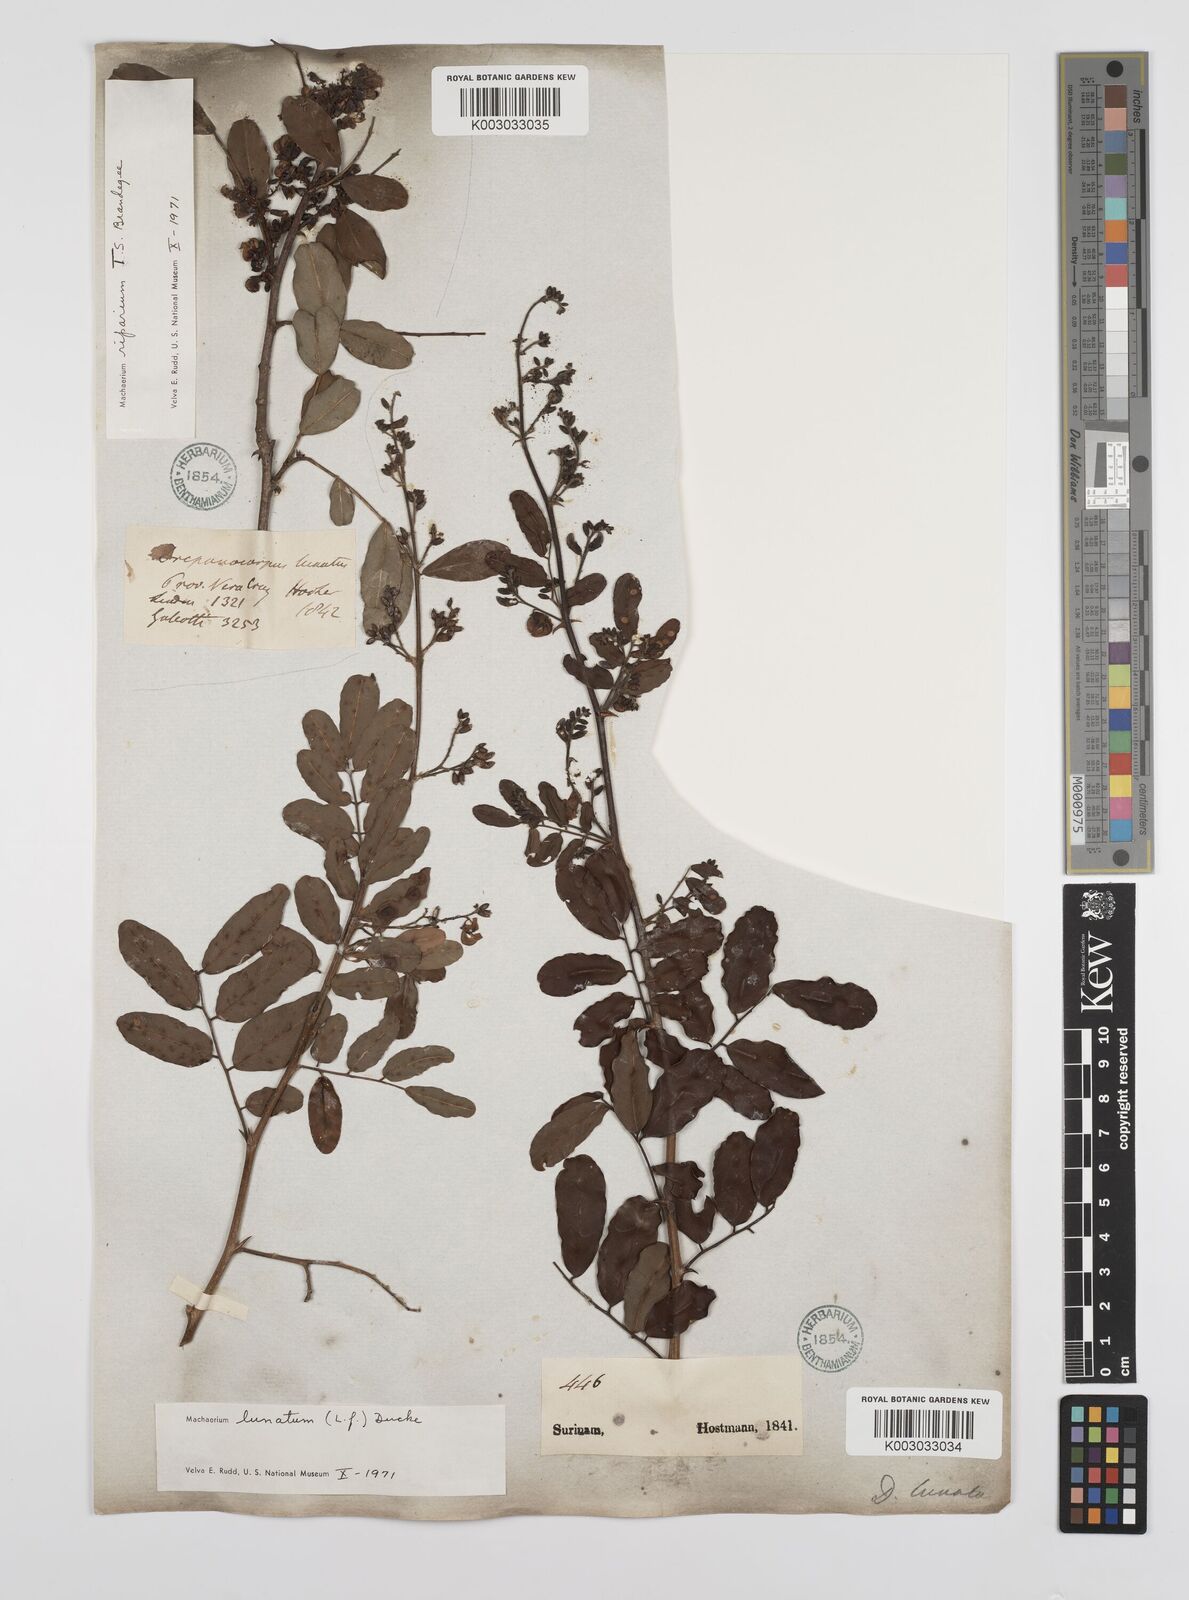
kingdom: Plantae
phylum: Tracheophyta
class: Magnoliopsida
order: Fabales
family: Fabaceae
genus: Machaerium
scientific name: Machaerium lunatum
